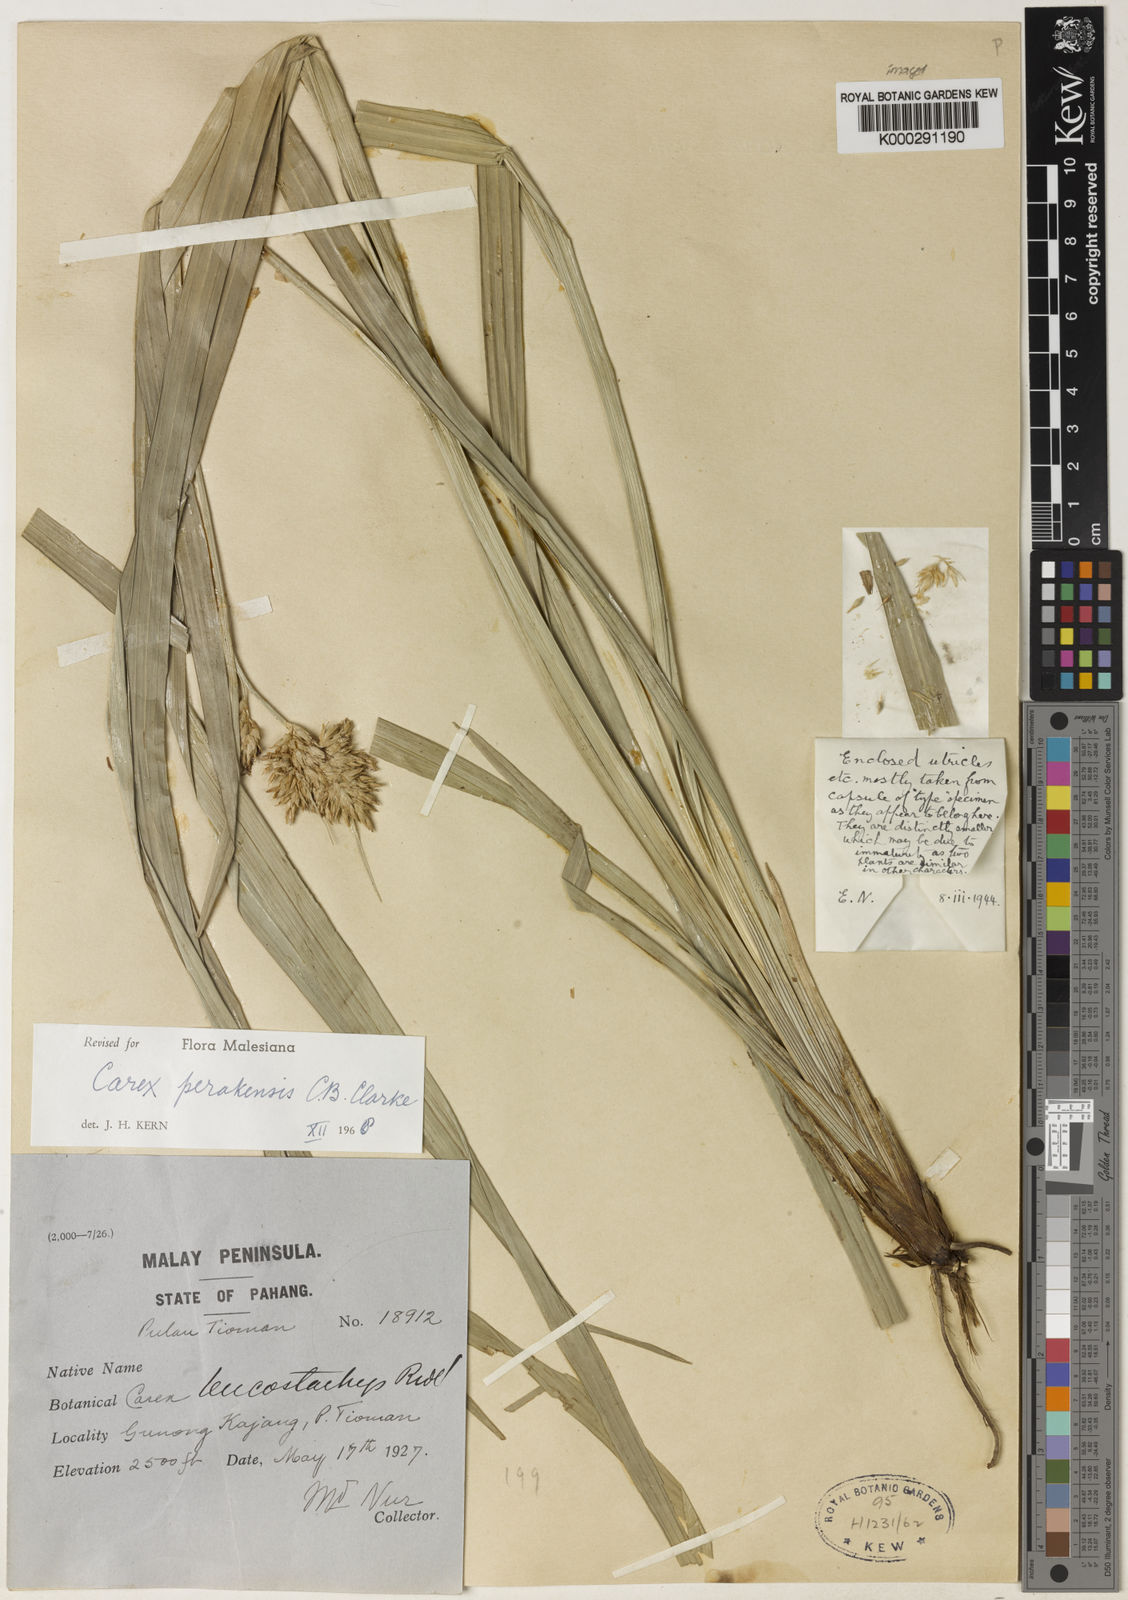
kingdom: Plantae
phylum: Tracheophyta
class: Liliopsida
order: Poales
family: Cyperaceae
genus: Carex
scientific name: Carex perakensis
